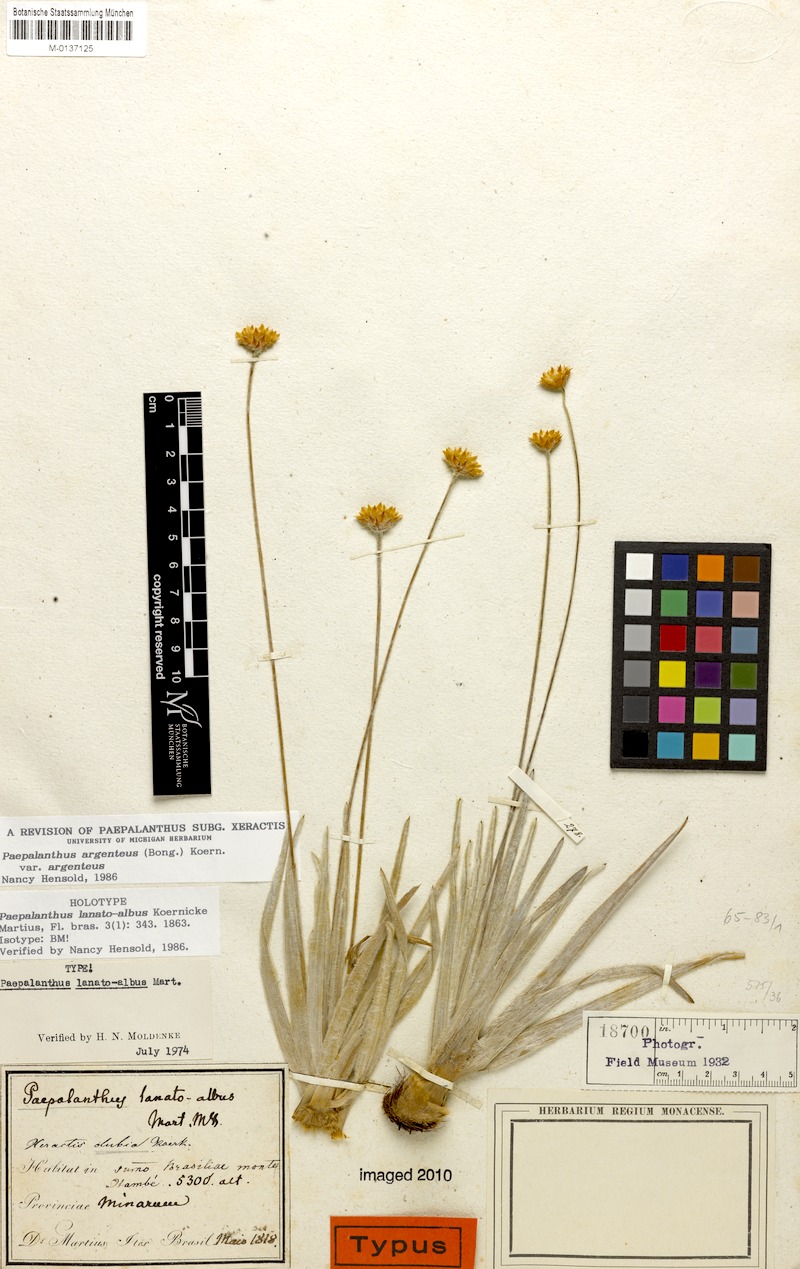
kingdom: Plantae
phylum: Tracheophyta
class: Liliopsida
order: Poales
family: Eriocaulaceae
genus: Paepalanthus
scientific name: Paepalanthus argenteus
